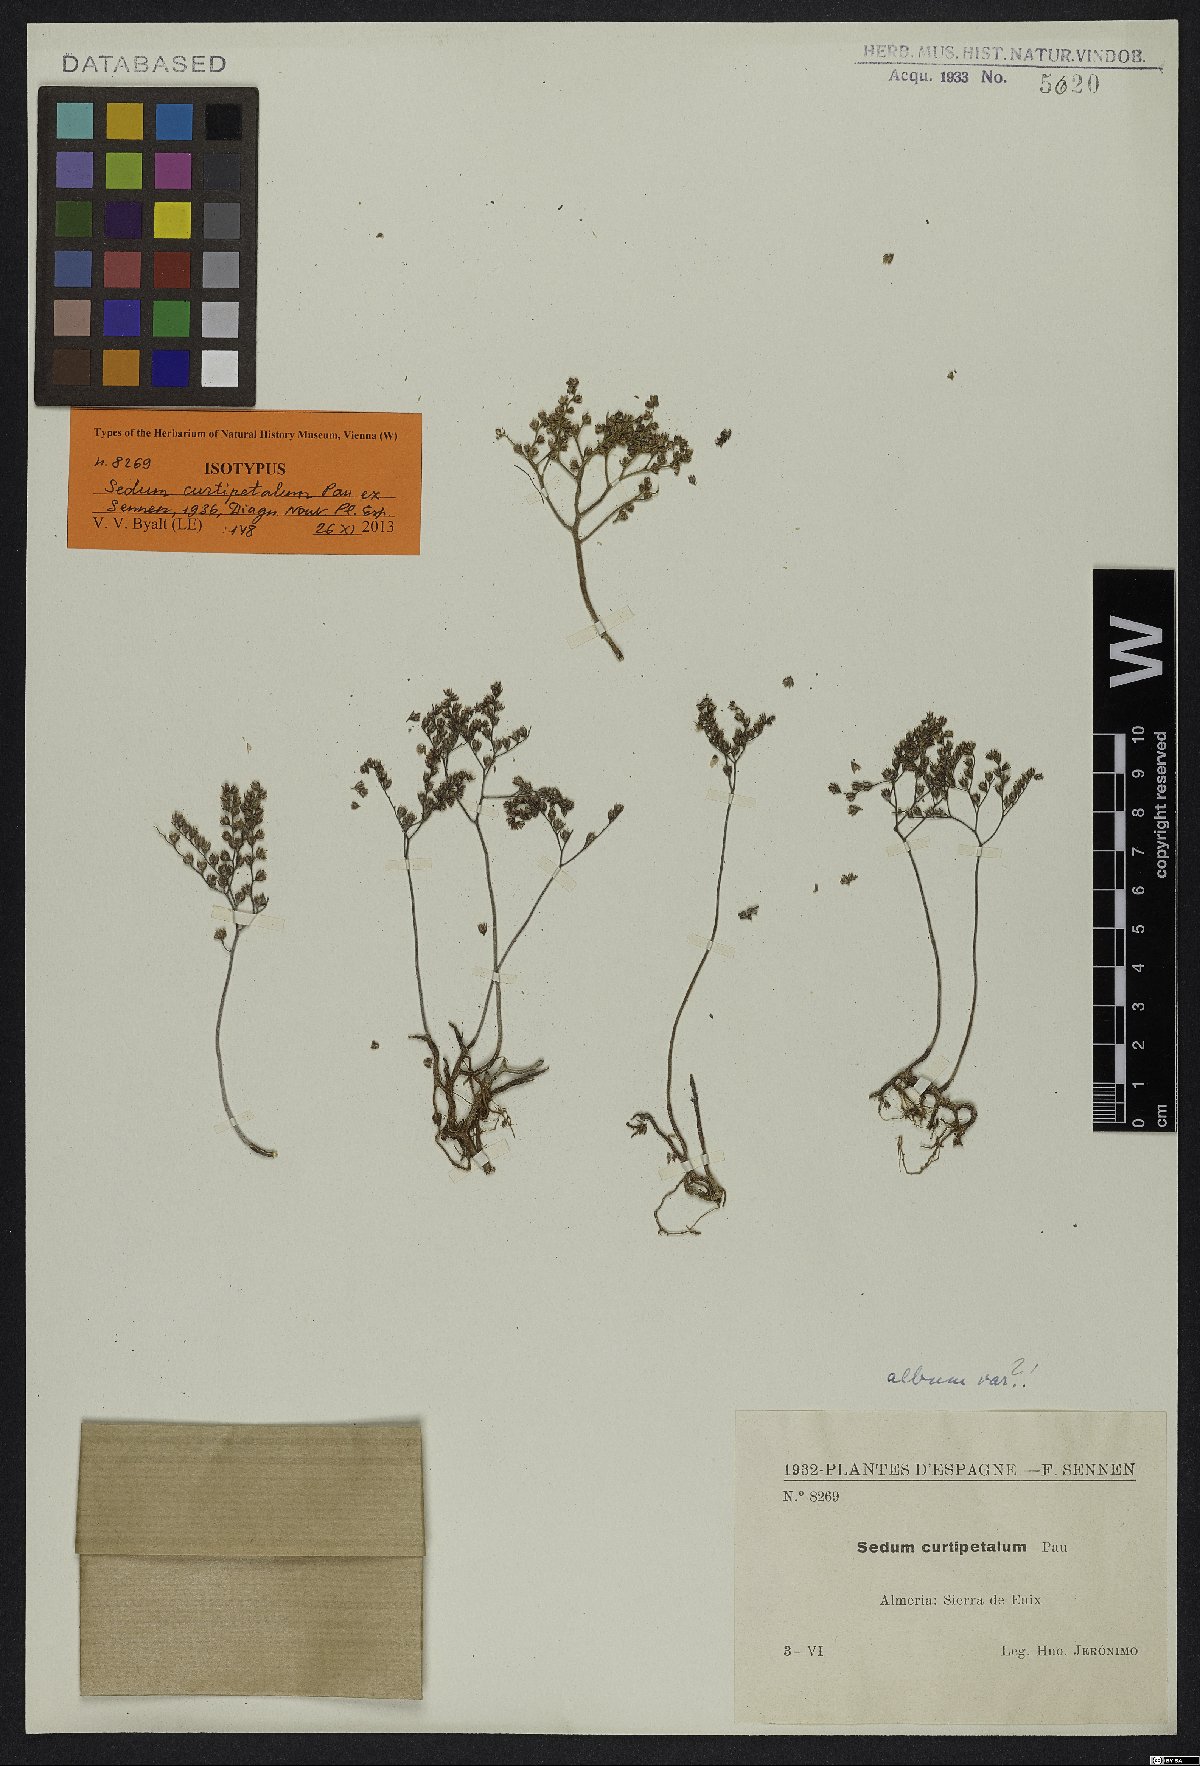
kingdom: Plantae
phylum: Tracheophyta
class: Magnoliopsida
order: Saxifragales
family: Crassulaceae
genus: Sedum
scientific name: Sedum album
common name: White stonecrop
